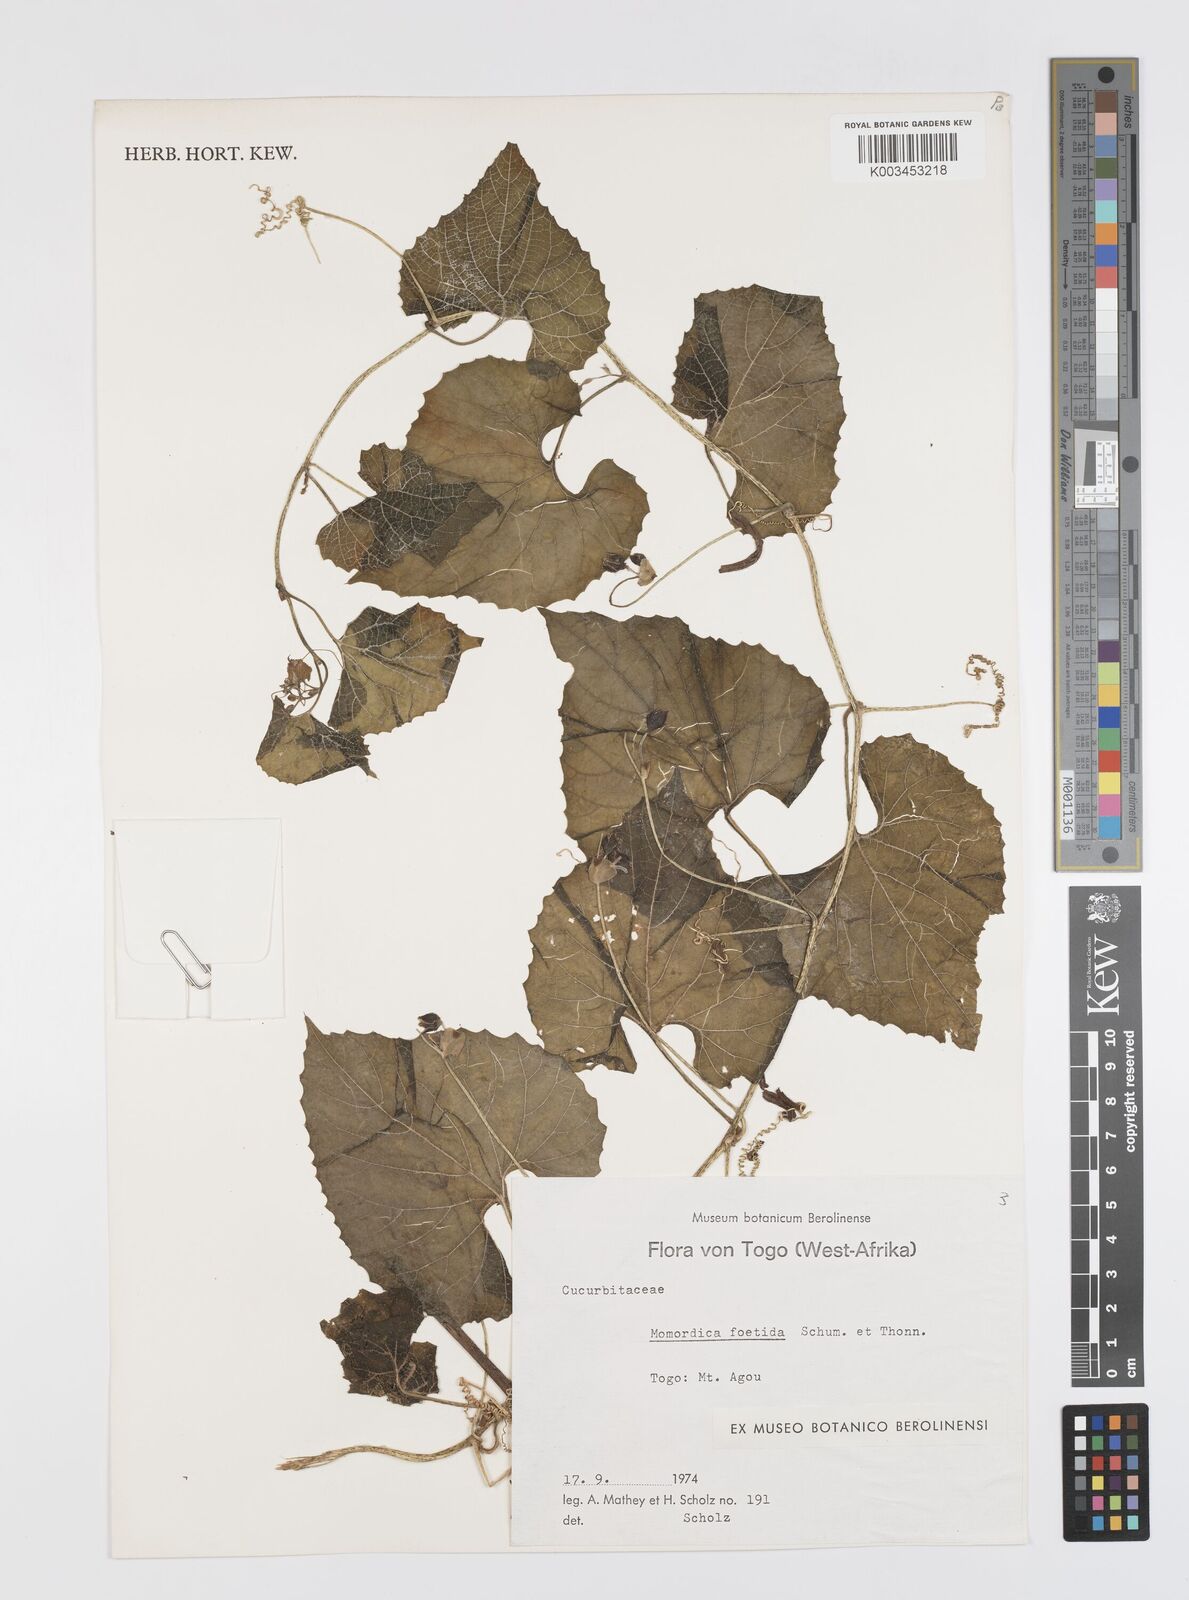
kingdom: Plantae
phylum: Tracheophyta
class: Magnoliopsida
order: Cucurbitales
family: Cucurbitaceae
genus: Momordica
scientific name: Momordica foetida
